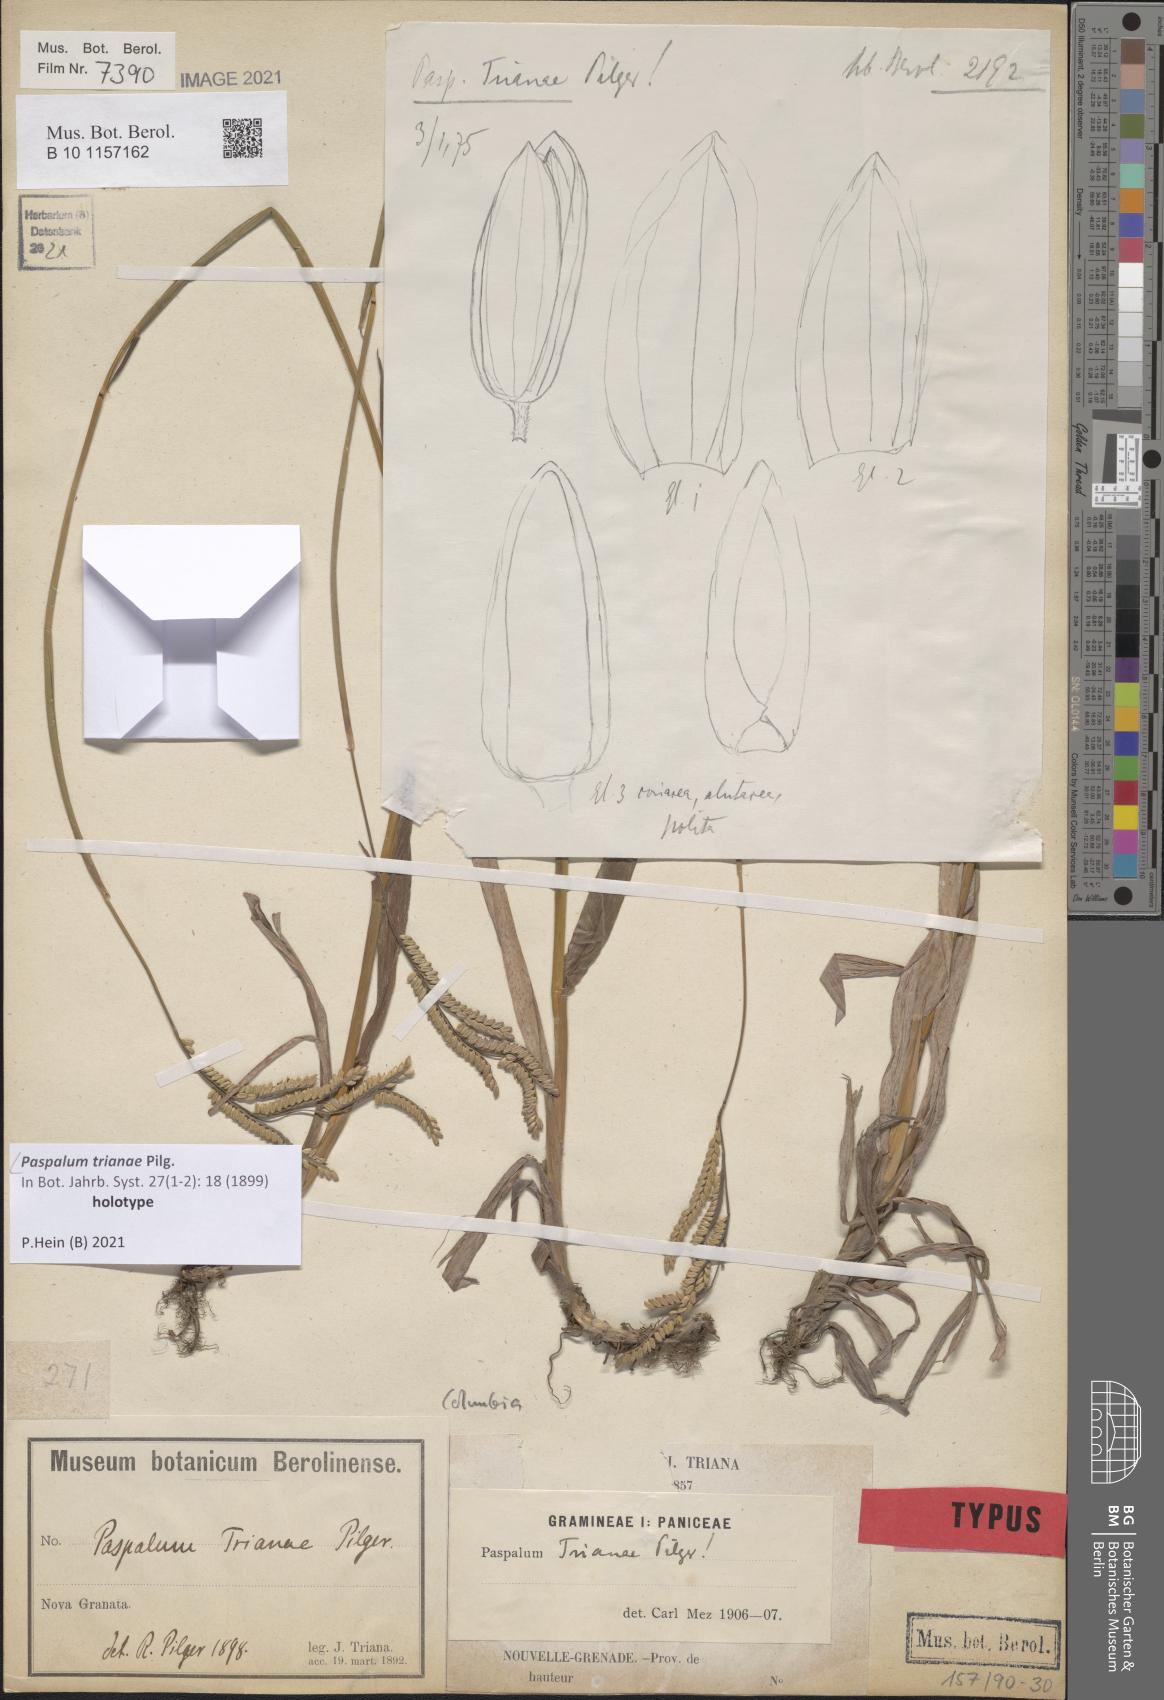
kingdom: Plantae
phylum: Tracheophyta
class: Liliopsida
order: Poales
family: Poaceae
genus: Paspalum
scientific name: Paspalum trianae
